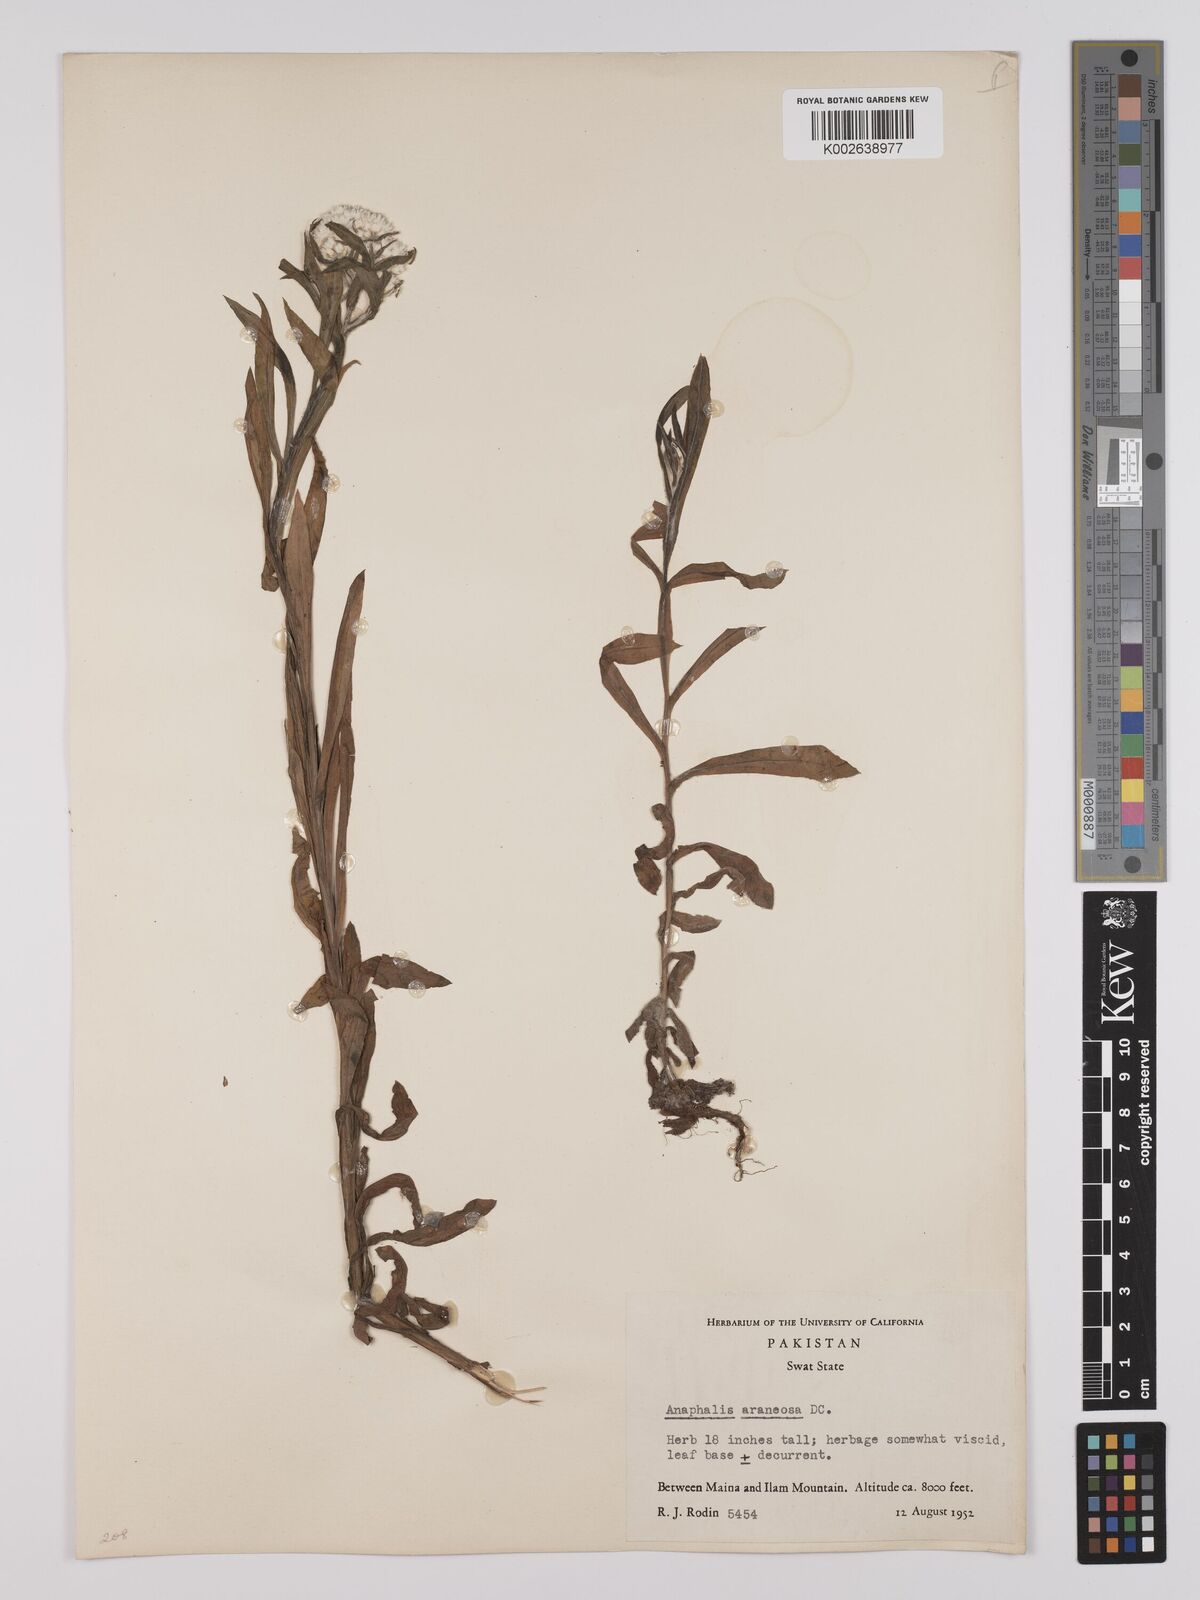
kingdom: Plantae
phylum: Tracheophyta
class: Magnoliopsida
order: Asterales
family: Asteraceae
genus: Anaphalis
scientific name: Anaphalis busua
